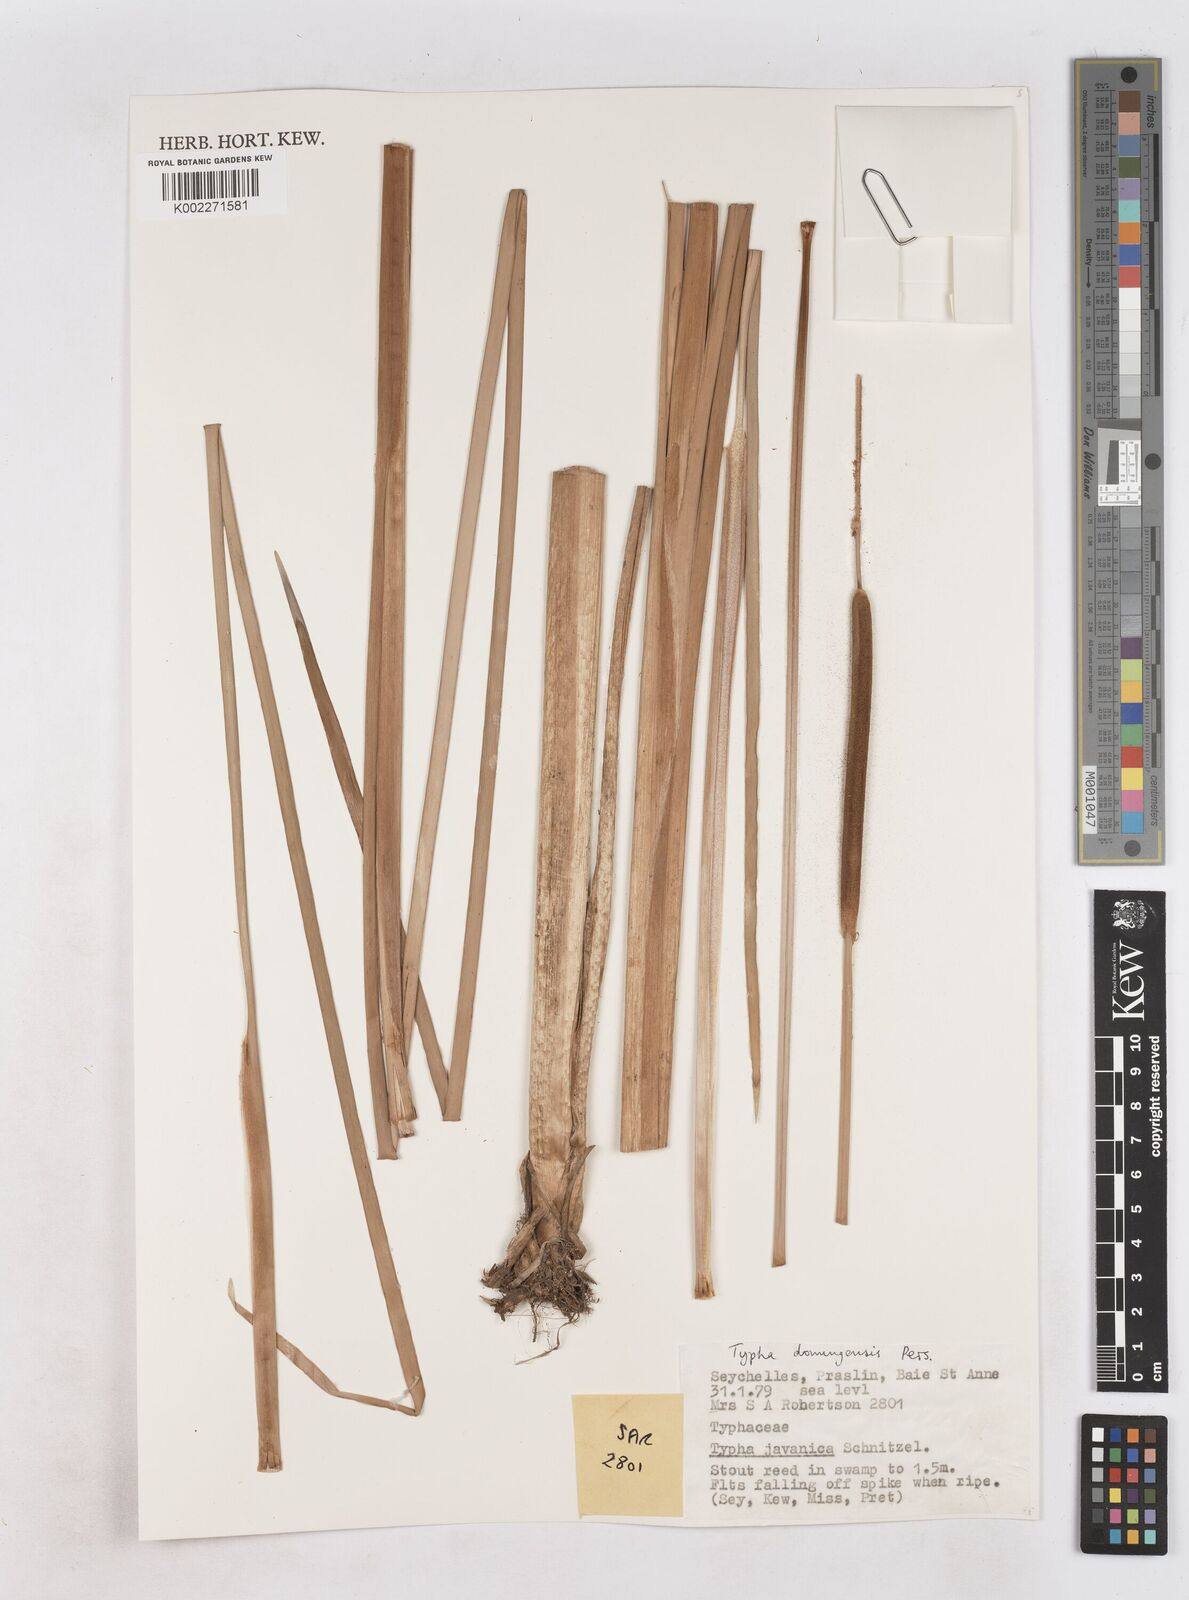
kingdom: Plantae
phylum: Tracheophyta
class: Liliopsida
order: Poales
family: Typhaceae
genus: Typha
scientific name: Typha domingensis
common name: Southern cattail
